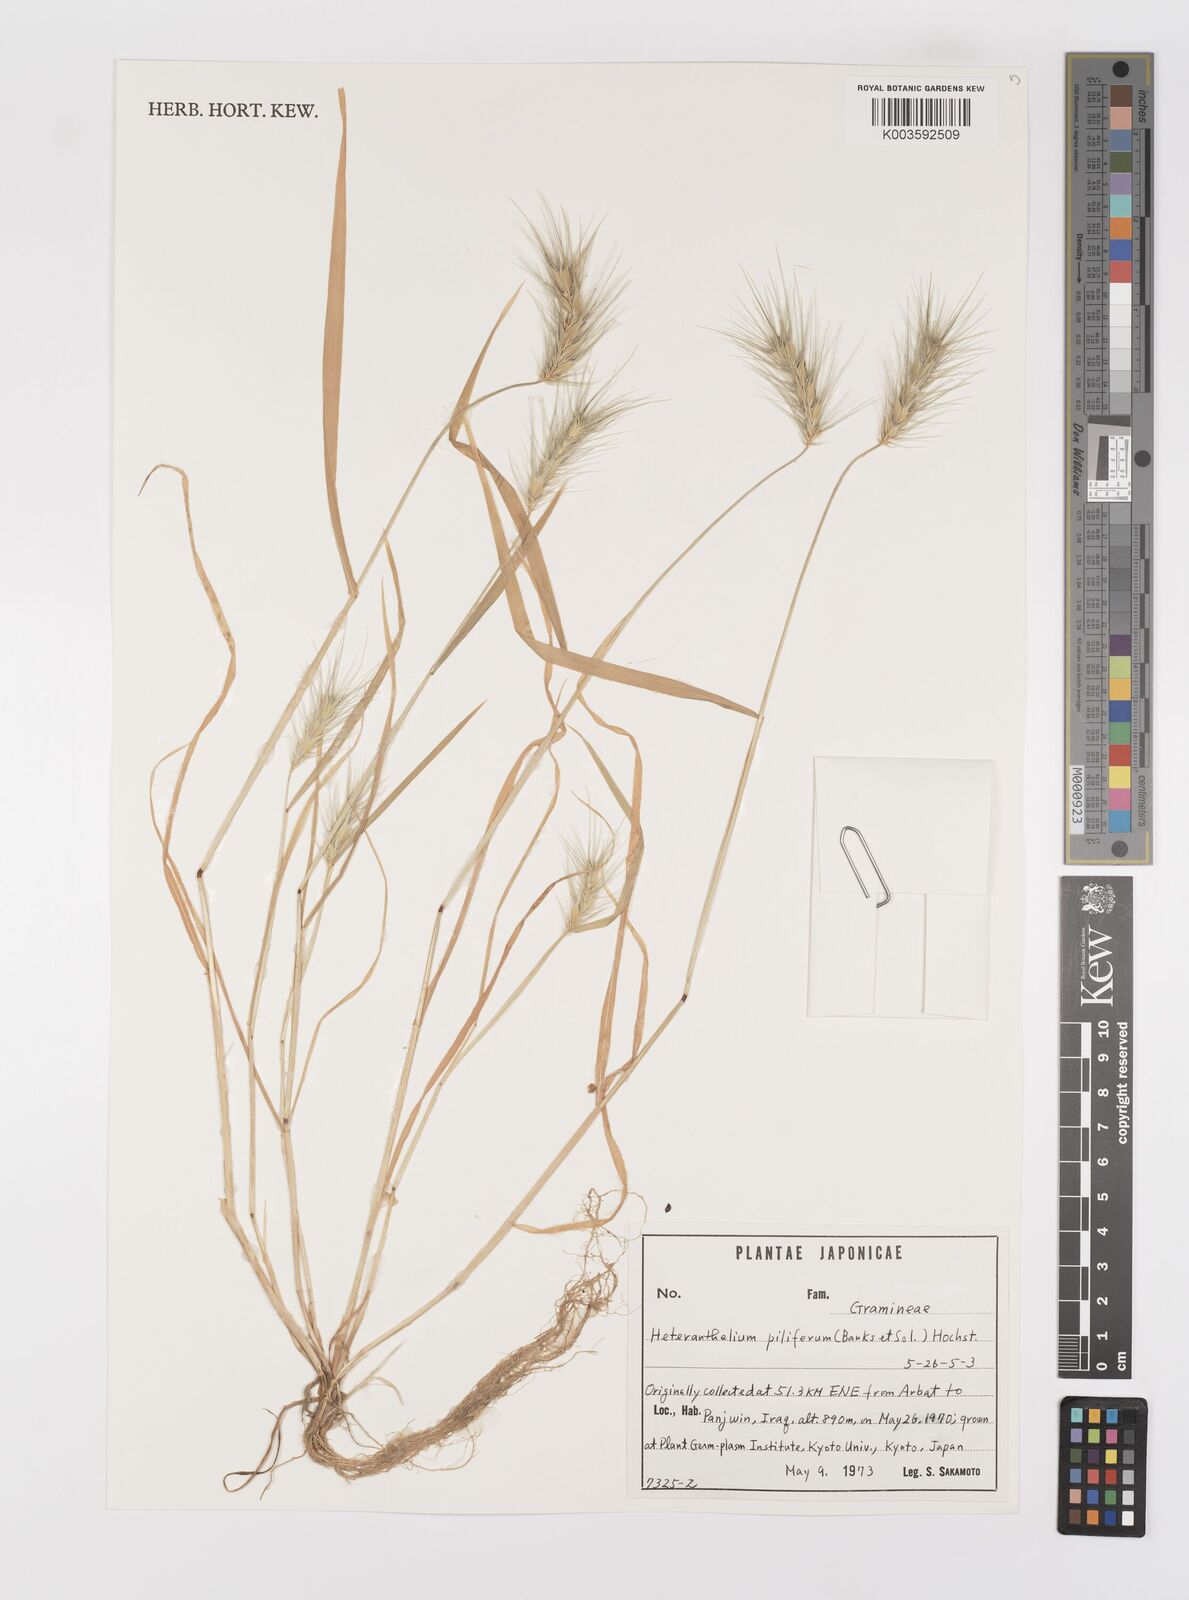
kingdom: Plantae
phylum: Tracheophyta
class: Liliopsida
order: Poales
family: Poaceae
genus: Heteranthelium
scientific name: Heteranthelium piliferum
